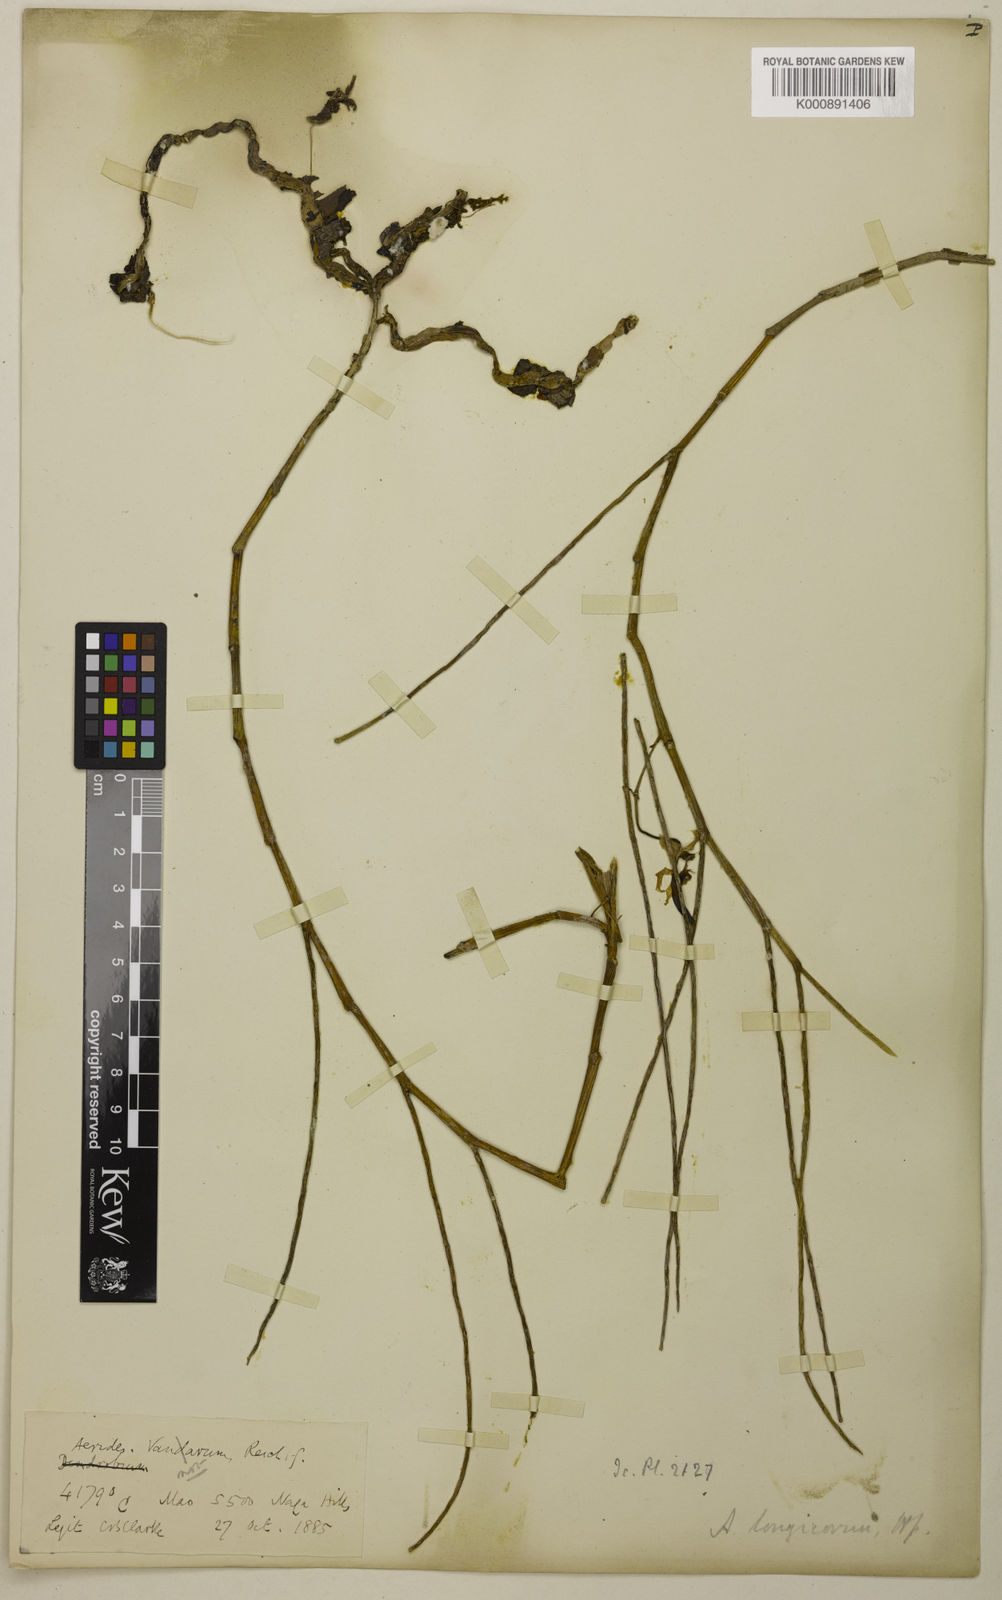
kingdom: Plantae
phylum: Tracheophyta
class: Liliopsida
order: Asparagales
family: Orchidaceae
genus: Papilionanthe
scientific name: Papilionanthe uniflora
